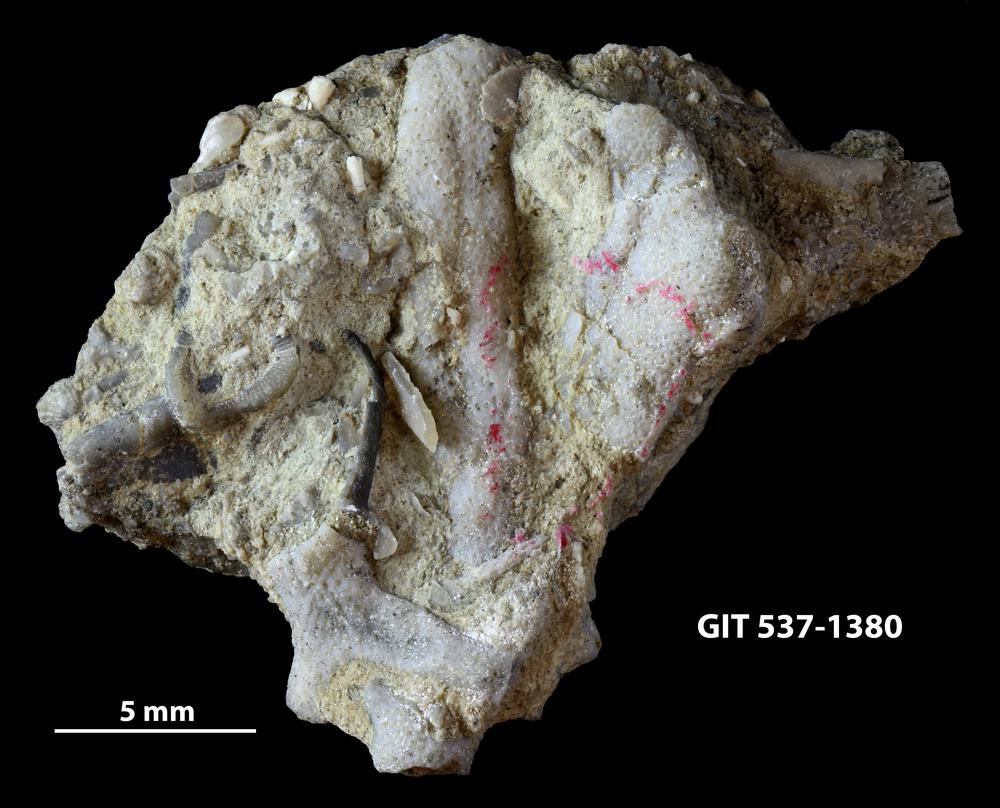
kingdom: Animalia
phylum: Bryozoa
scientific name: Bryozoa
